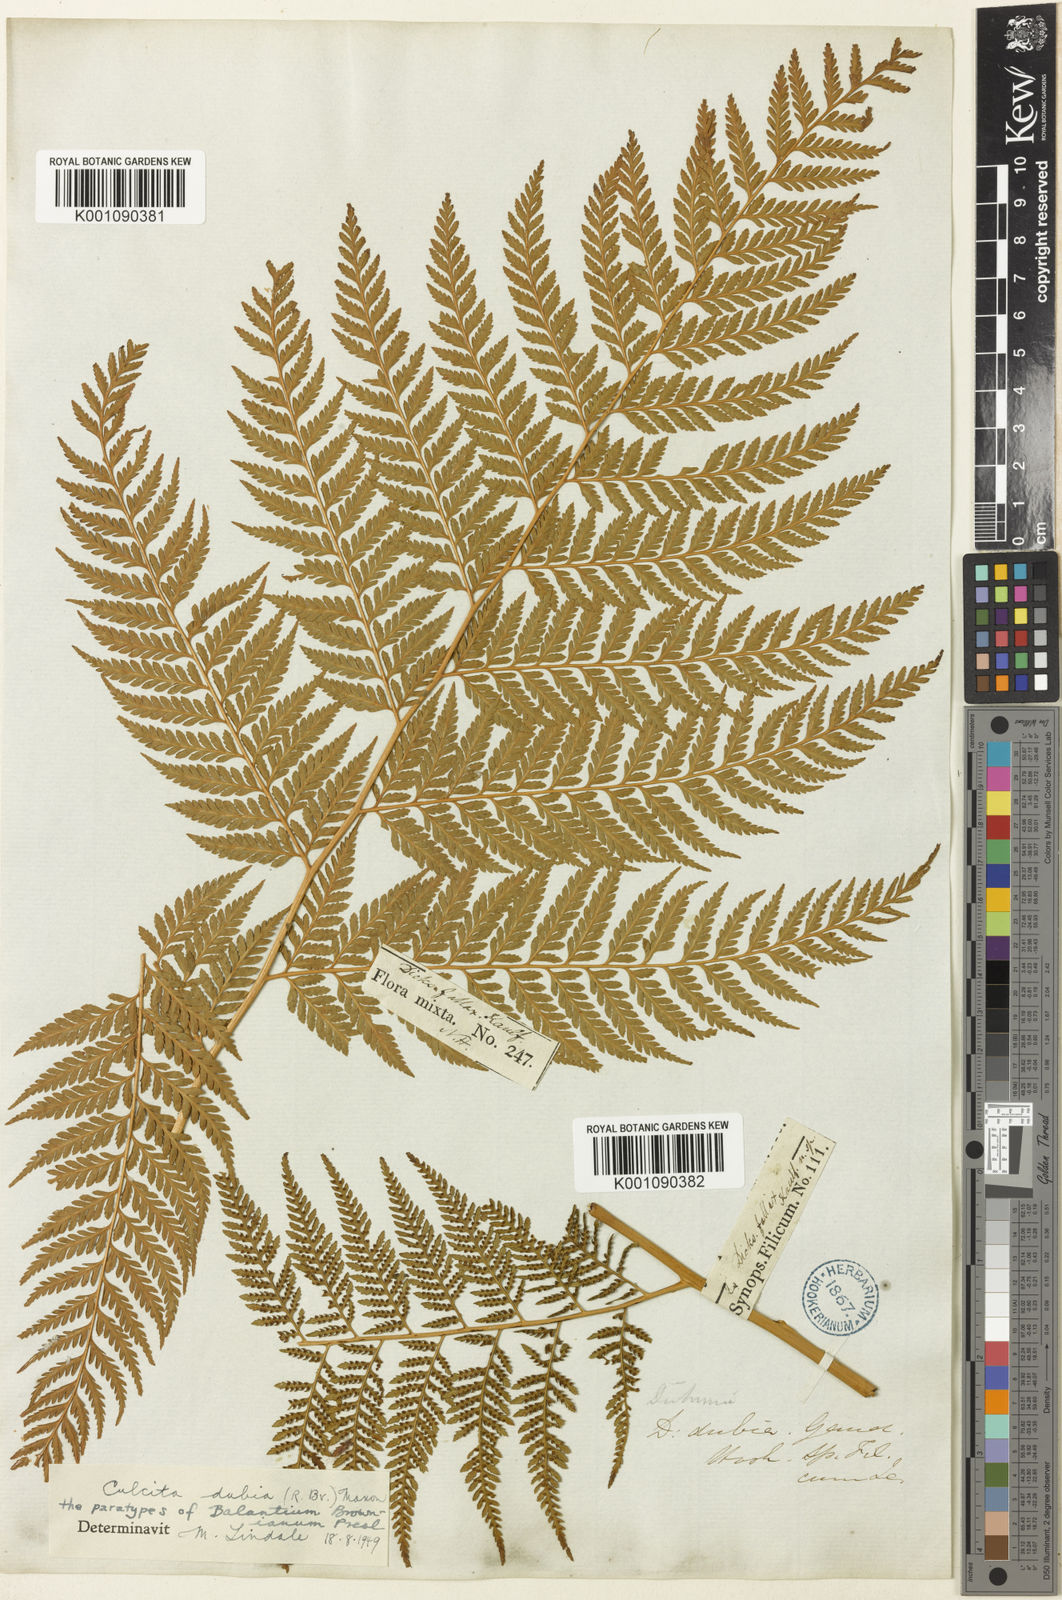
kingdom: Plantae
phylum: Tracheophyta
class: Polypodiopsida
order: Cyatheales
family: Dicksoniaceae
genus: Calochlaena
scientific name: Calochlaena dubia
